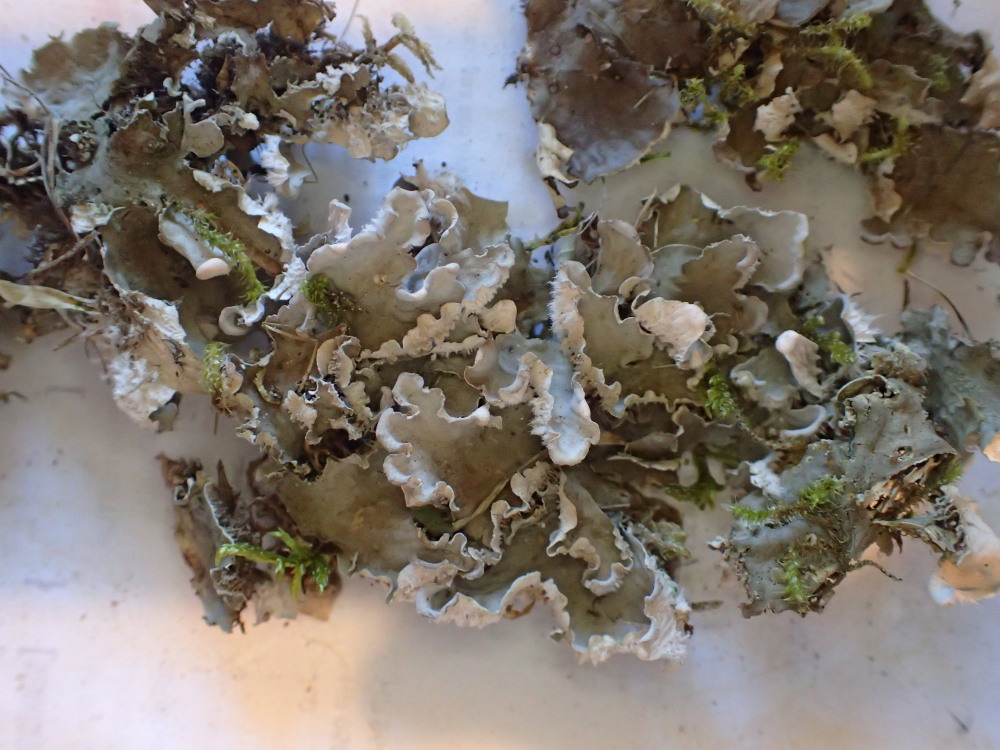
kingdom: Fungi
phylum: Ascomycota
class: Lecanoromycetes
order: Peltigerales
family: Peltigeraceae
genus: Peltigera
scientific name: Peltigera canina
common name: hunde-skjoldlav
